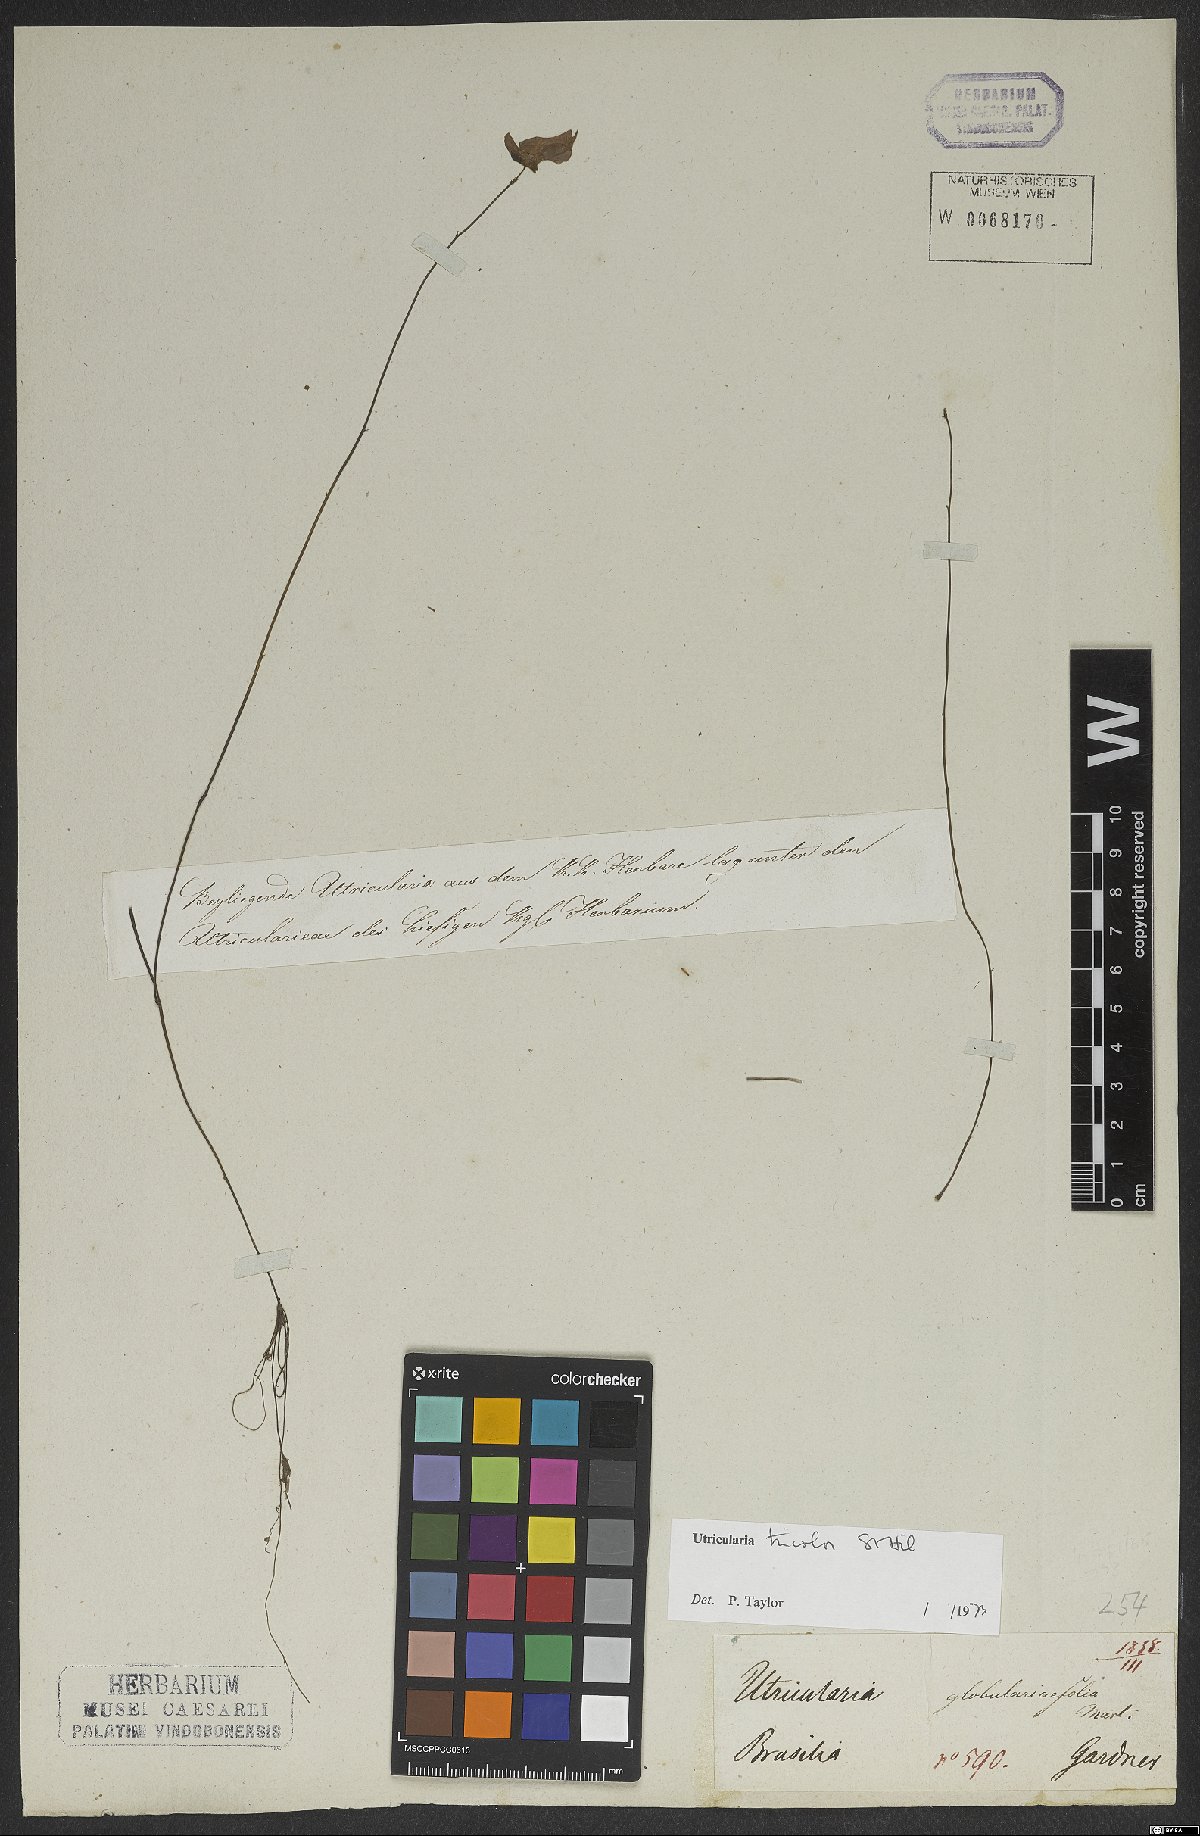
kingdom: Plantae
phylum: Tracheophyta
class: Magnoliopsida
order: Lamiales
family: Lentibulariaceae
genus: Utricularia
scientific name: Utricularia tricolor
